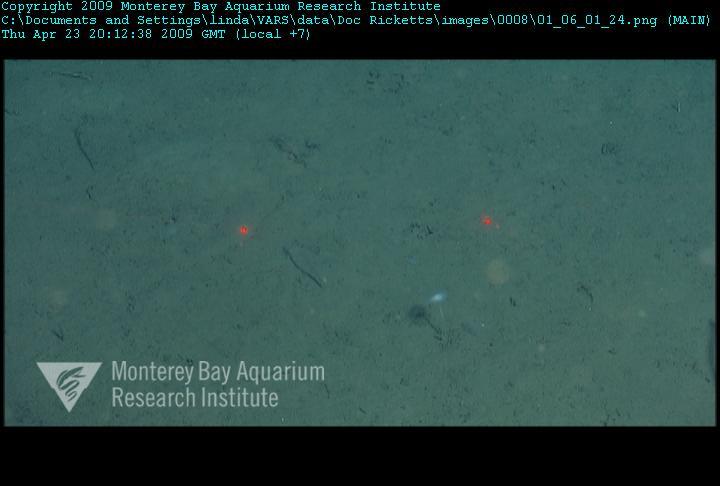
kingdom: Animalia
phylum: Porifera
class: Demospongiae
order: Poecilosclerida
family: Cladorhizidae
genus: Cladorhiza
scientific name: Cladorhiza
